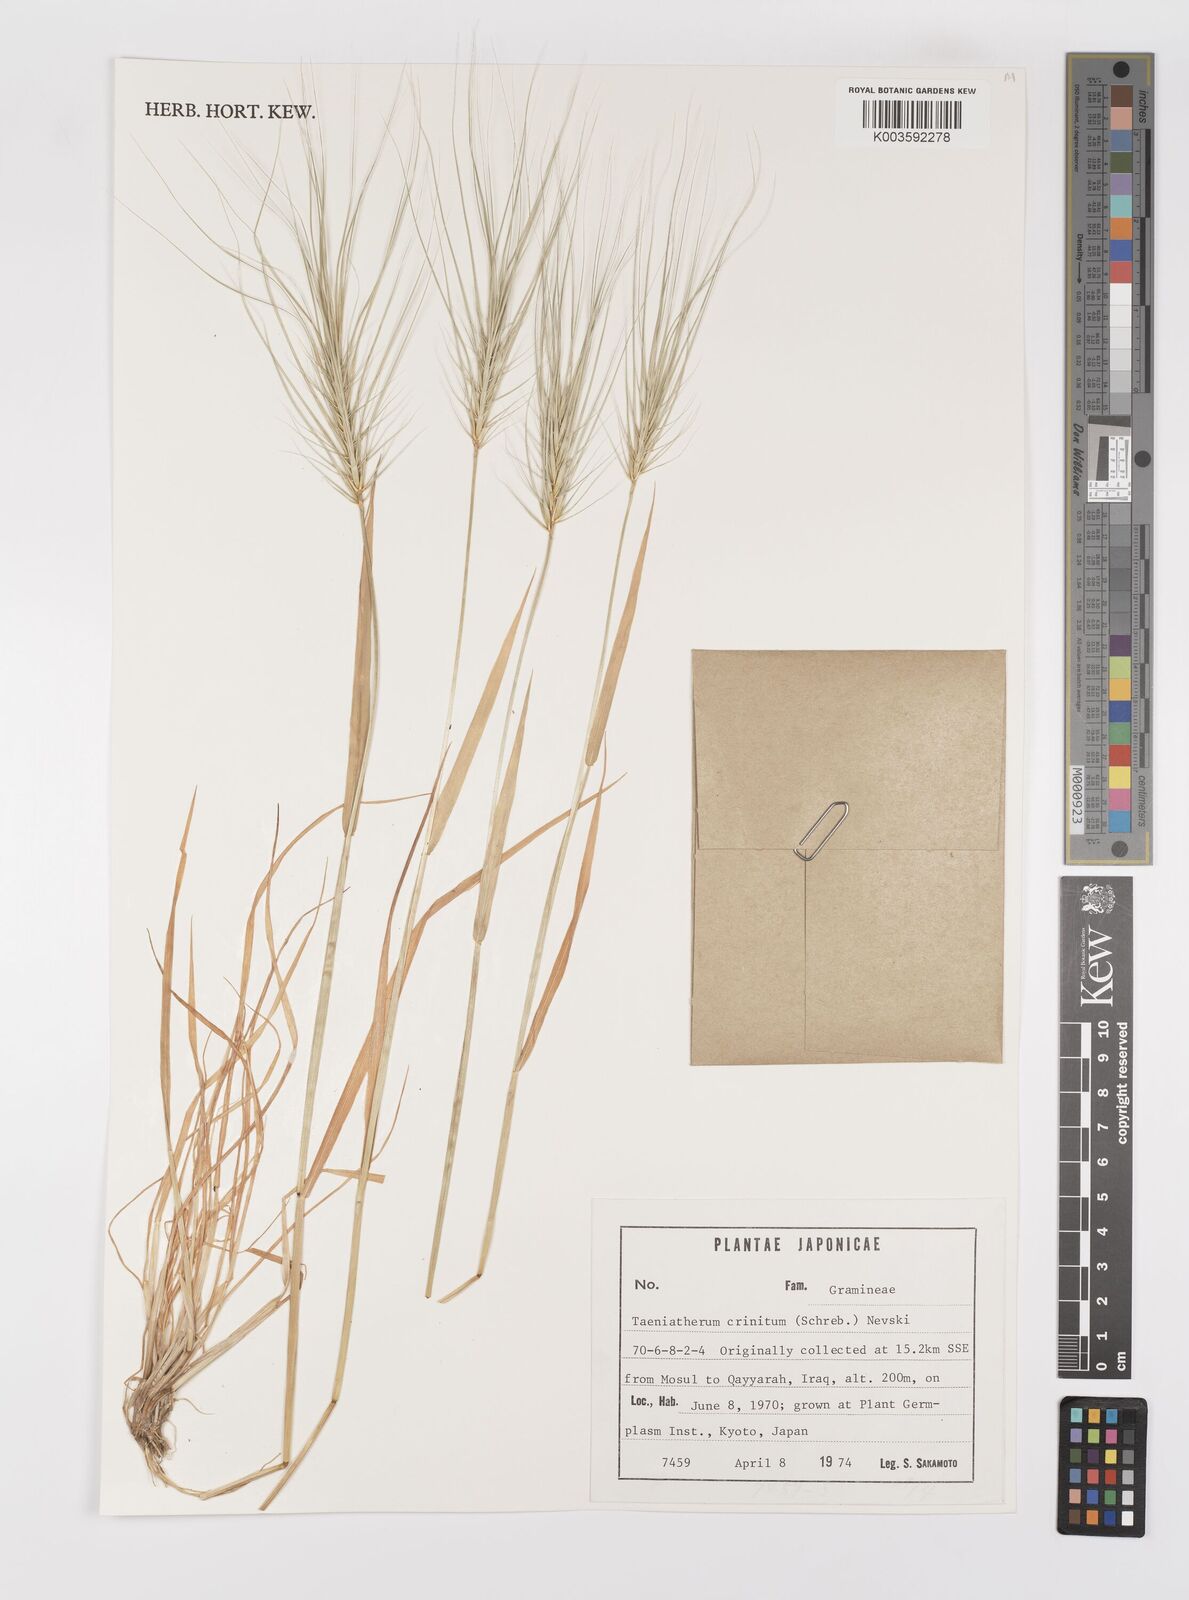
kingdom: Plantae
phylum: Tracheophyta
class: Liliopsida
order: Poales
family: Poaceae
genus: Taeniatherum
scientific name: Taeniatherum caput-medusae
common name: Medusahead
